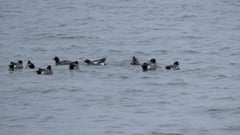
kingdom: Animalia
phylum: Chordata
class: Aves
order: Anseriformes
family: Anatidae
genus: Mareca
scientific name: Mareca penelope
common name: Eurasian wigeon
